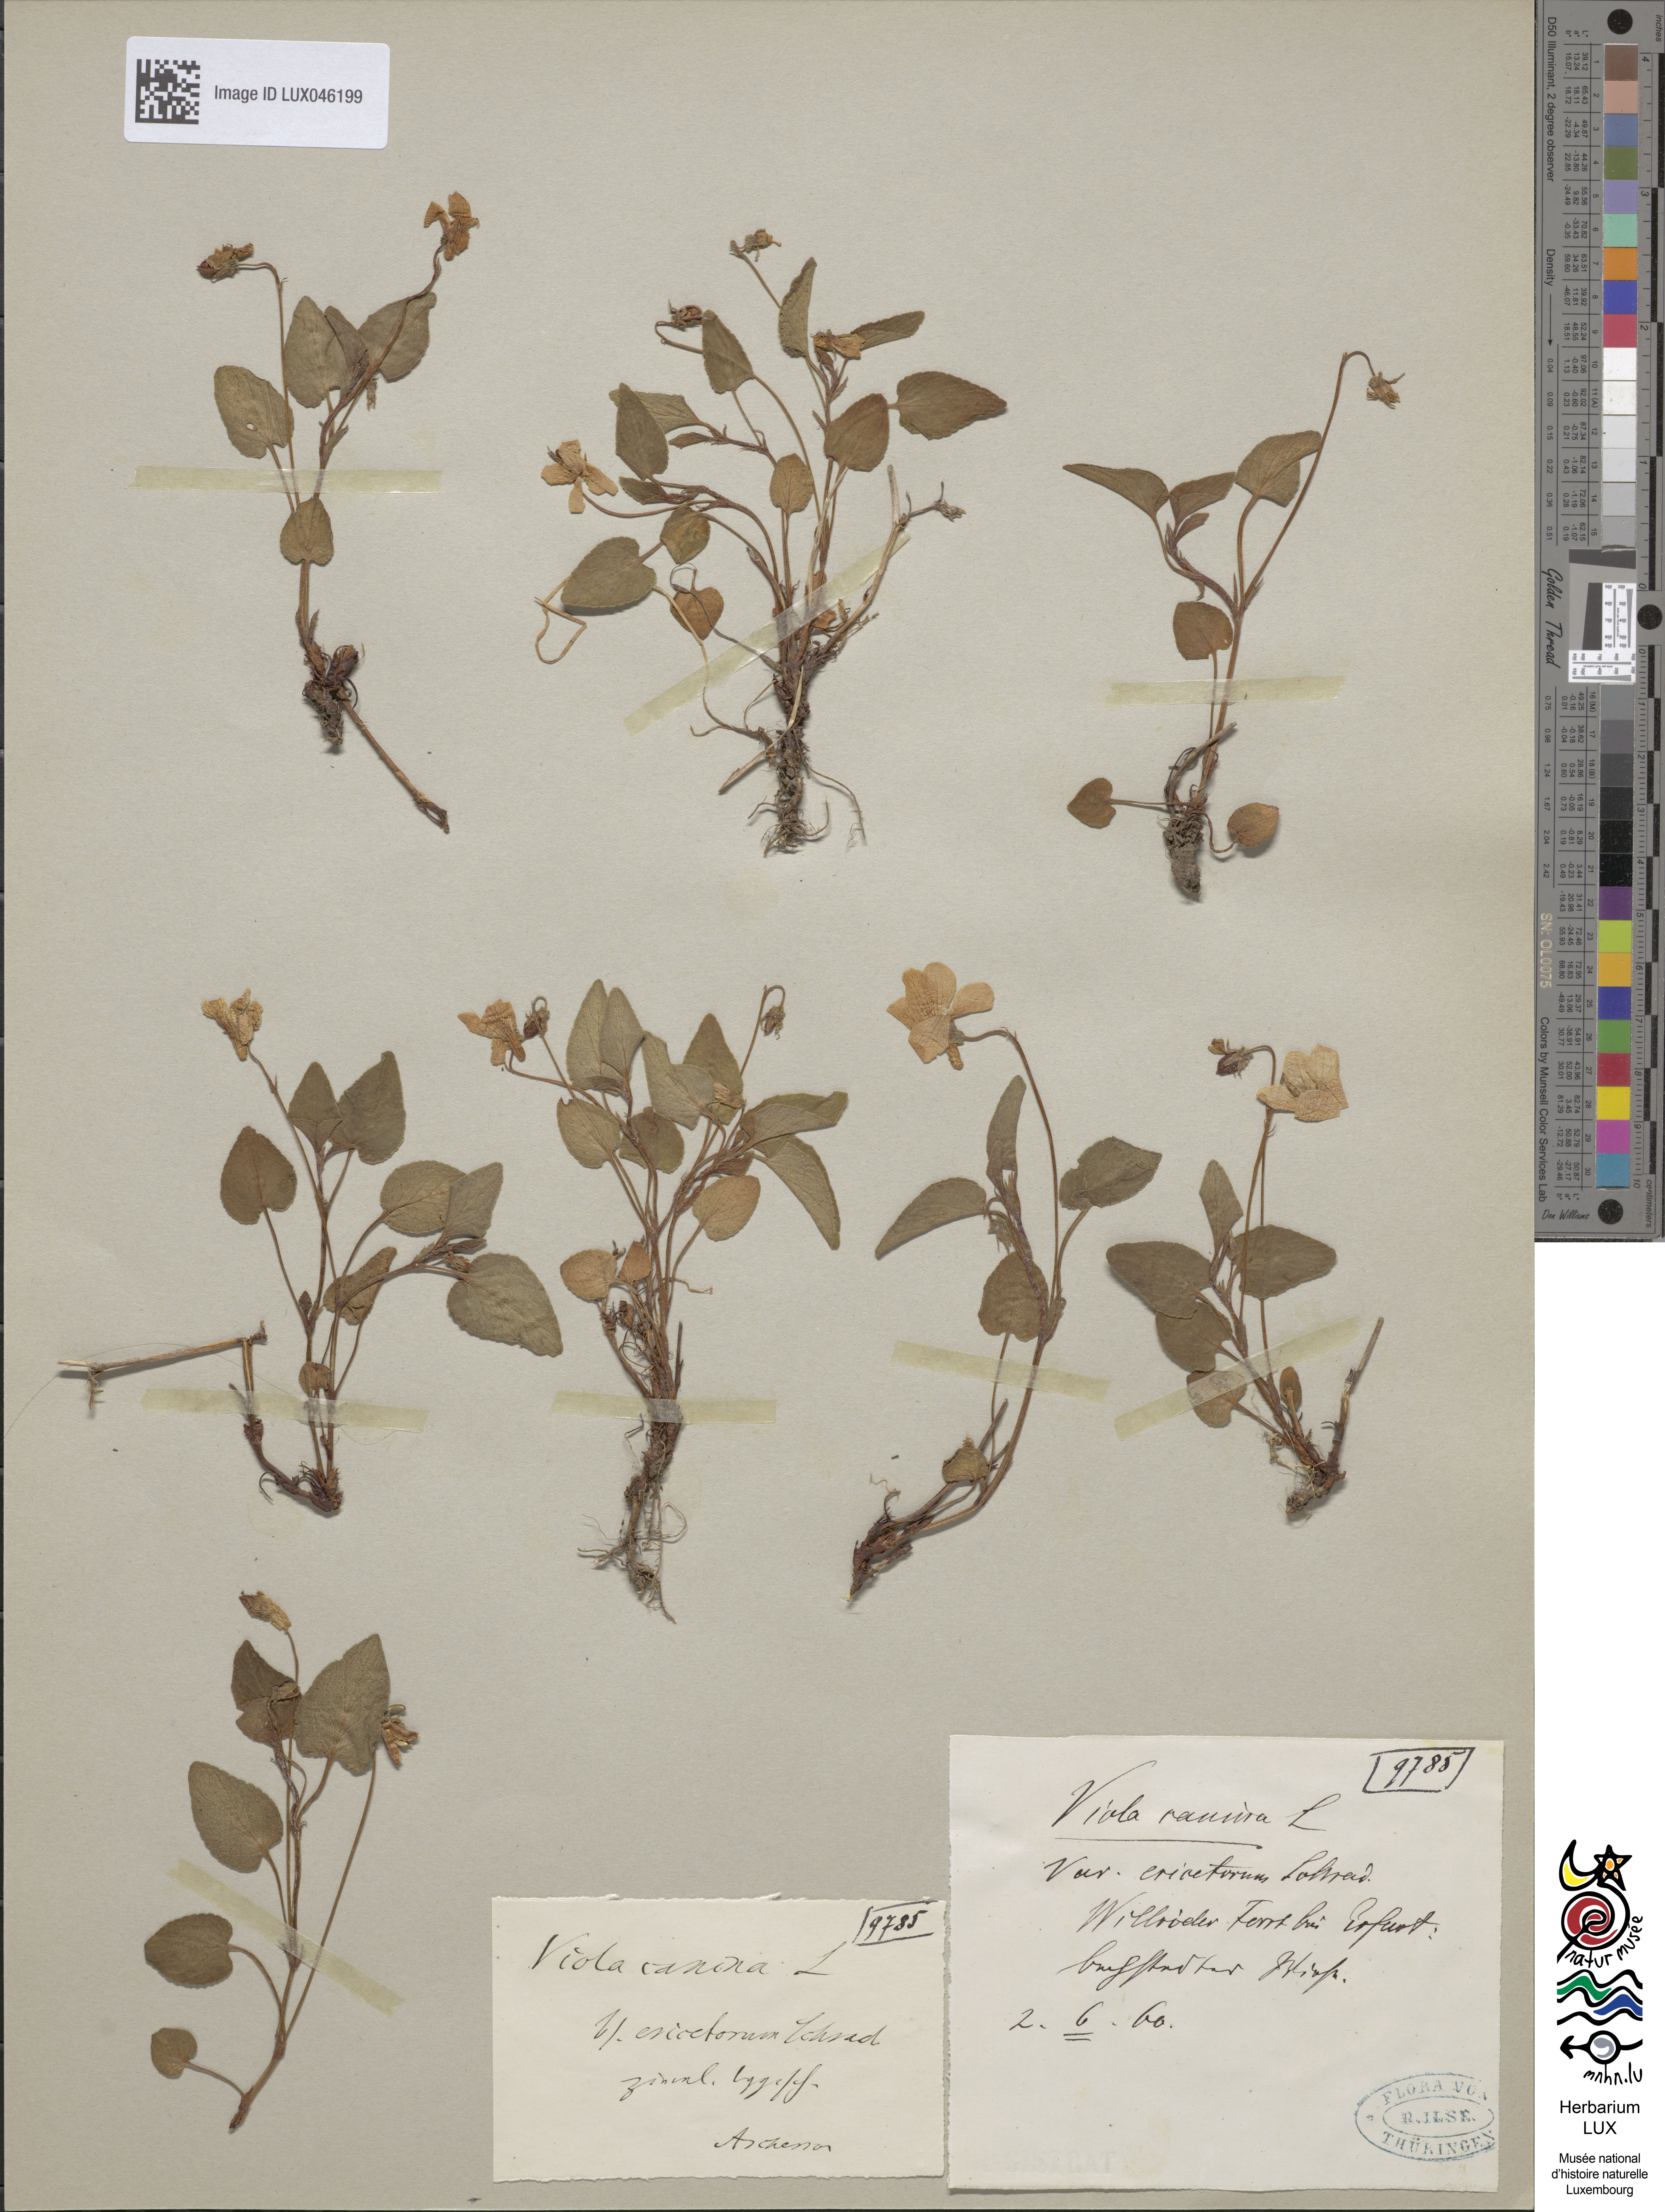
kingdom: Plantae
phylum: Tracheophyta
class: Magnoliopsida
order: Malpighiales
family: Violaceae
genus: Viola
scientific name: Viola canina
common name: Heath dog-violet
